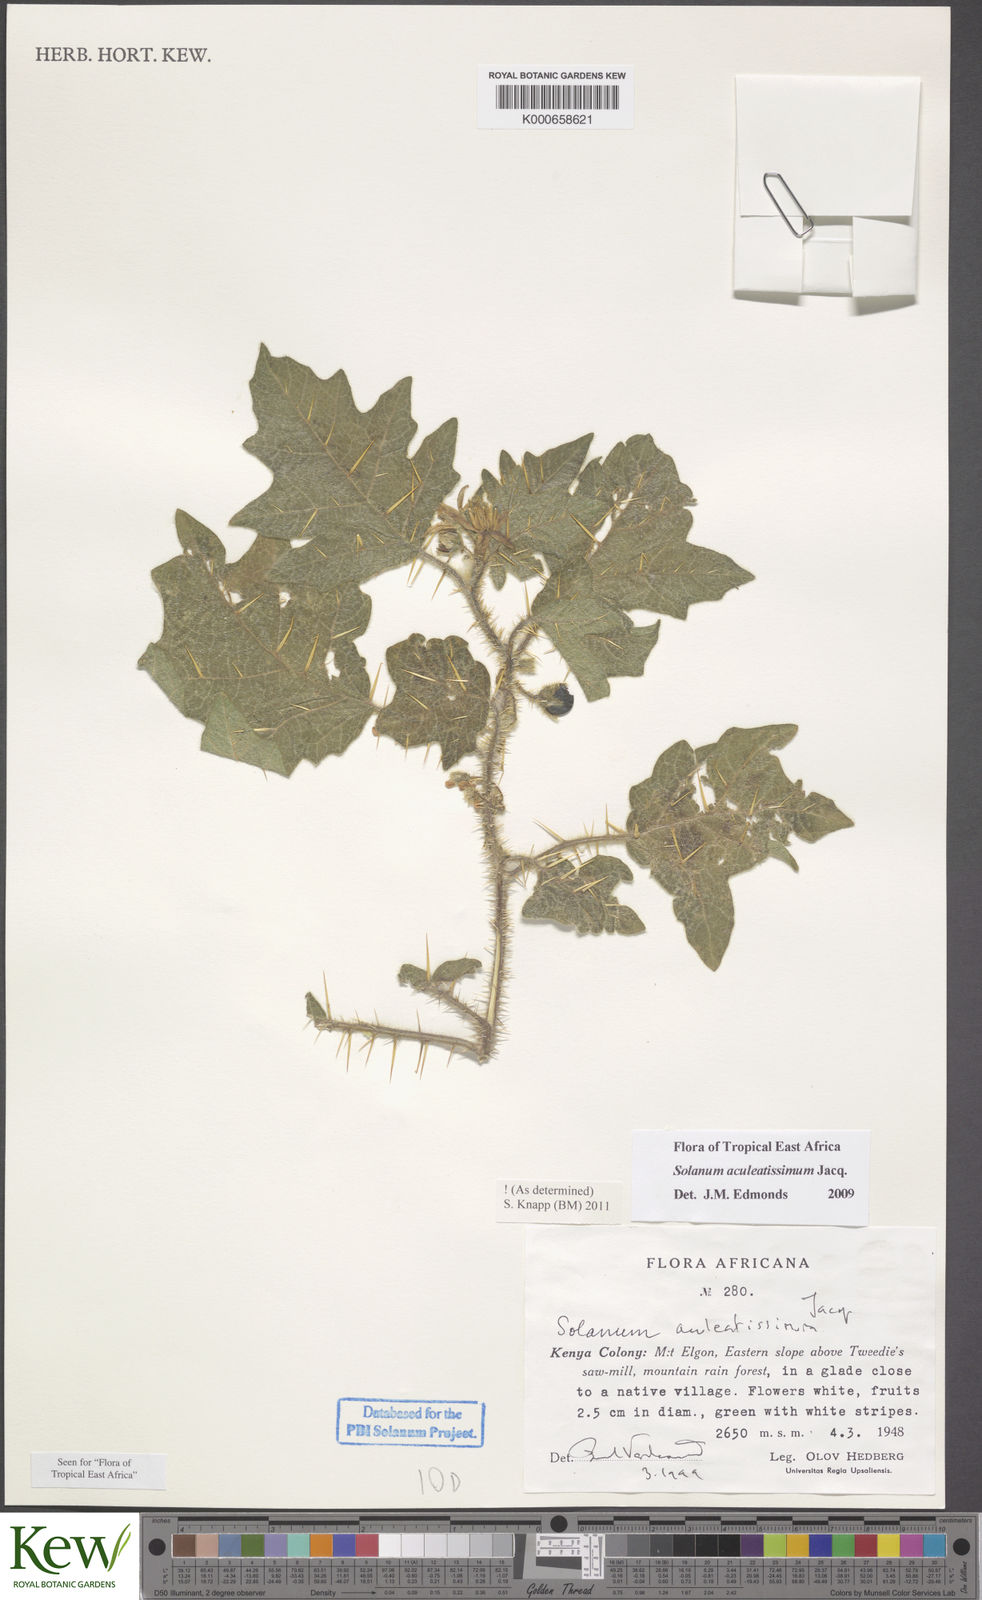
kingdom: Plantae
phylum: Tracheophyta
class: Magnoliopsida
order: Solanales
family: Solanaceae
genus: Solanum
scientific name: Solanum aculeatissimum
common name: Dutch eggplant
